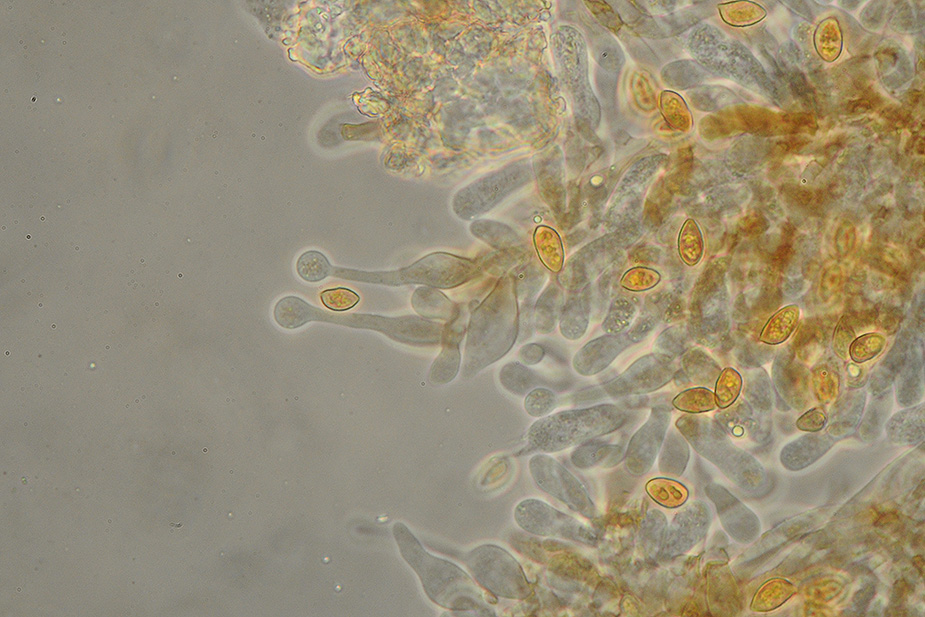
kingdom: Fungi
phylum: Basidiomycota
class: Agaricomycetes
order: Agaricales
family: Hymenogastraceae
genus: Galerina
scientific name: Galerina cinctula
